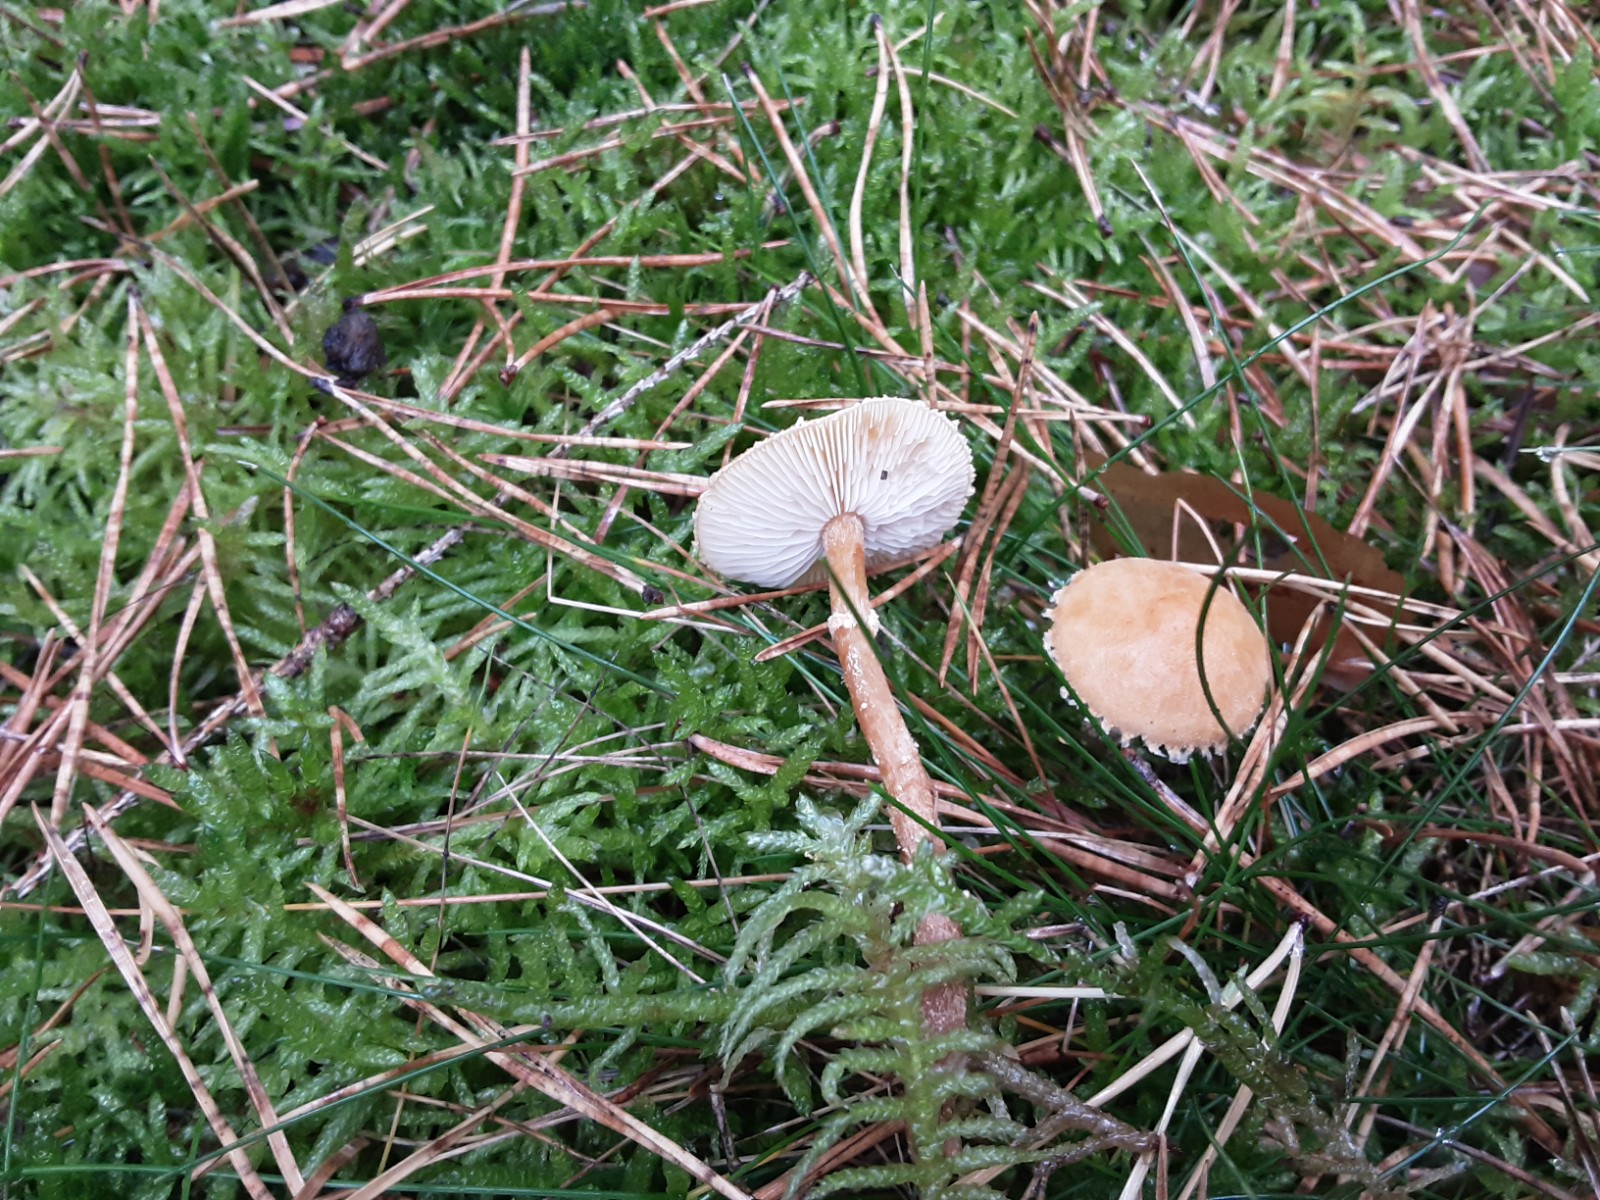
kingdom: Fungi
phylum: Basidiomycota
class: Agaricomycetes
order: Agaricales
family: Tricholomataceae
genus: Cystoderma
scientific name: Cystoderma amianthinum
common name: okkergul grynhat
